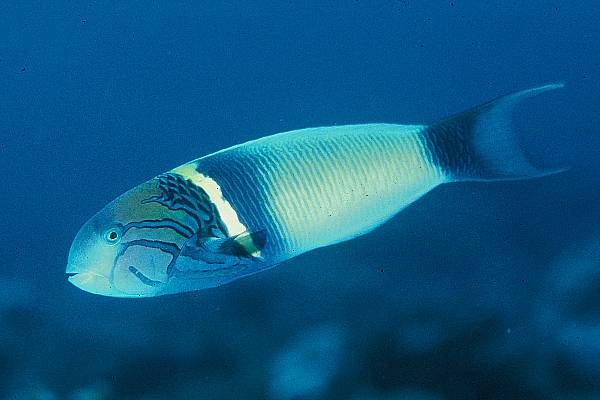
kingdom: Animalia
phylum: Chordata
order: Perciformes
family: Labridae
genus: Thalassoma
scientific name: Thalassoma hebraicum
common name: Goldbar wrasse
